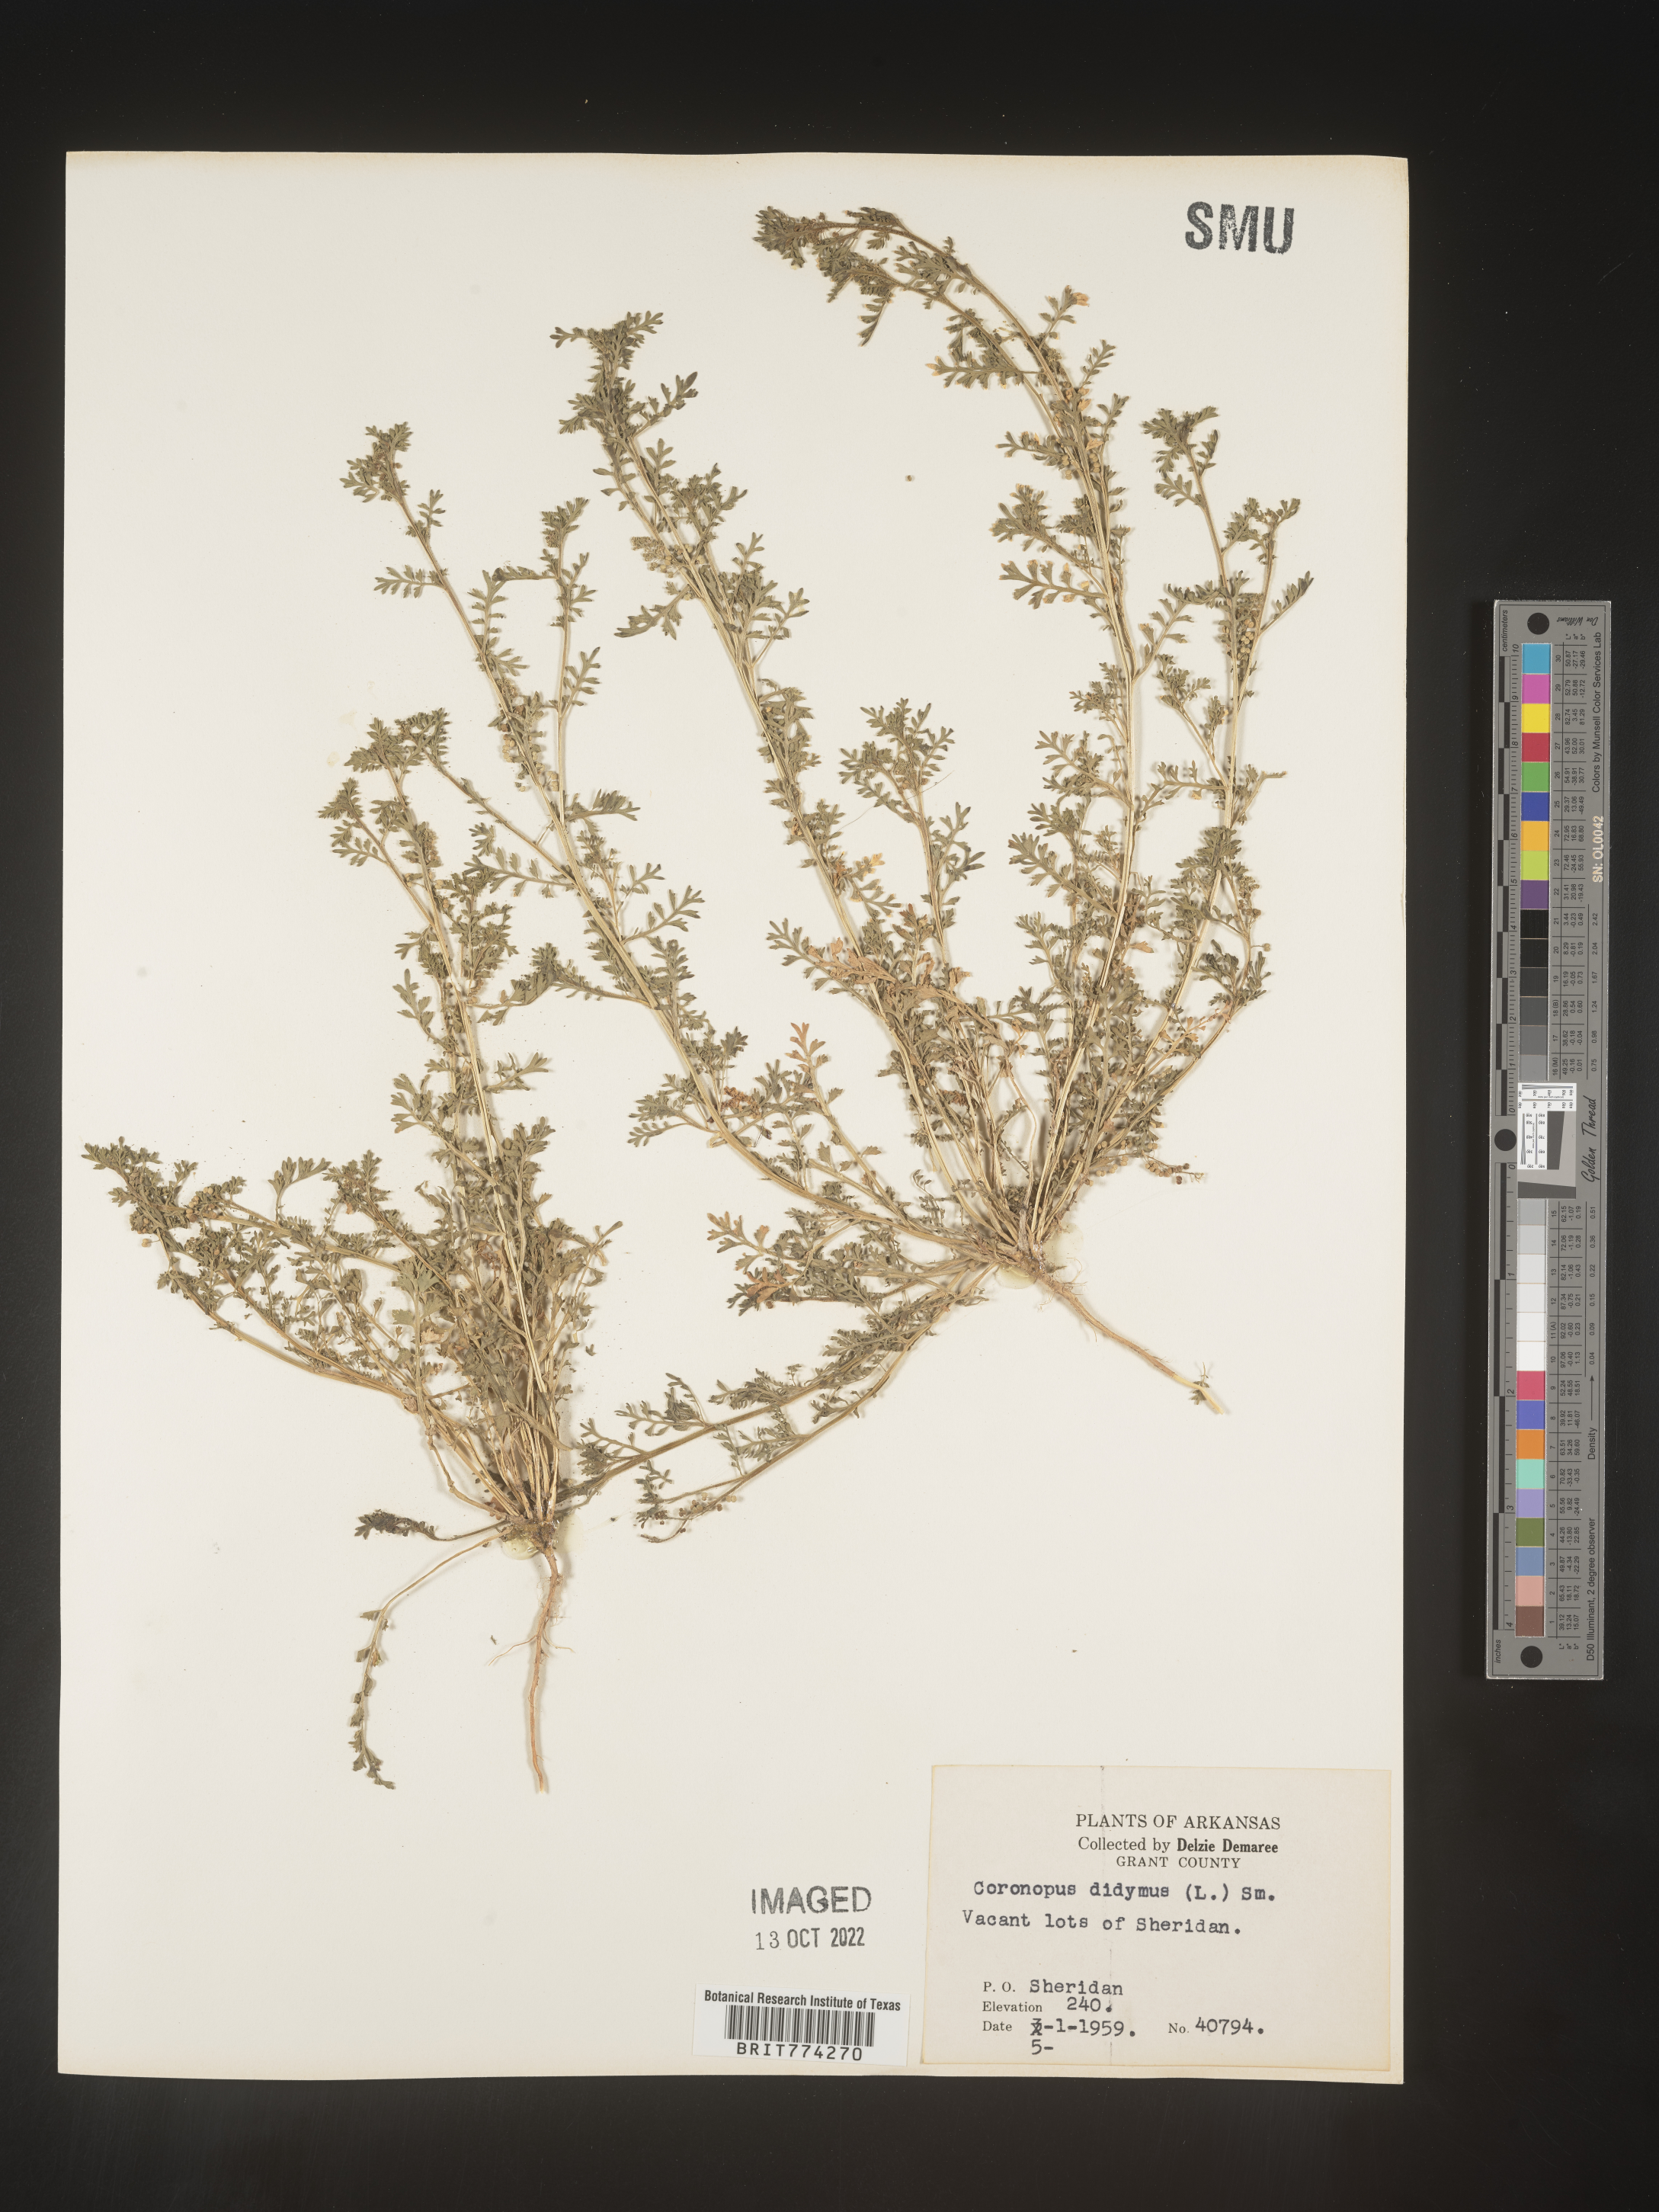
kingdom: Plantae
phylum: Tracheophyta
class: Magnoliopsida
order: Brassicales
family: Brassicaceae
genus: Coronopus
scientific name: Coronopus
